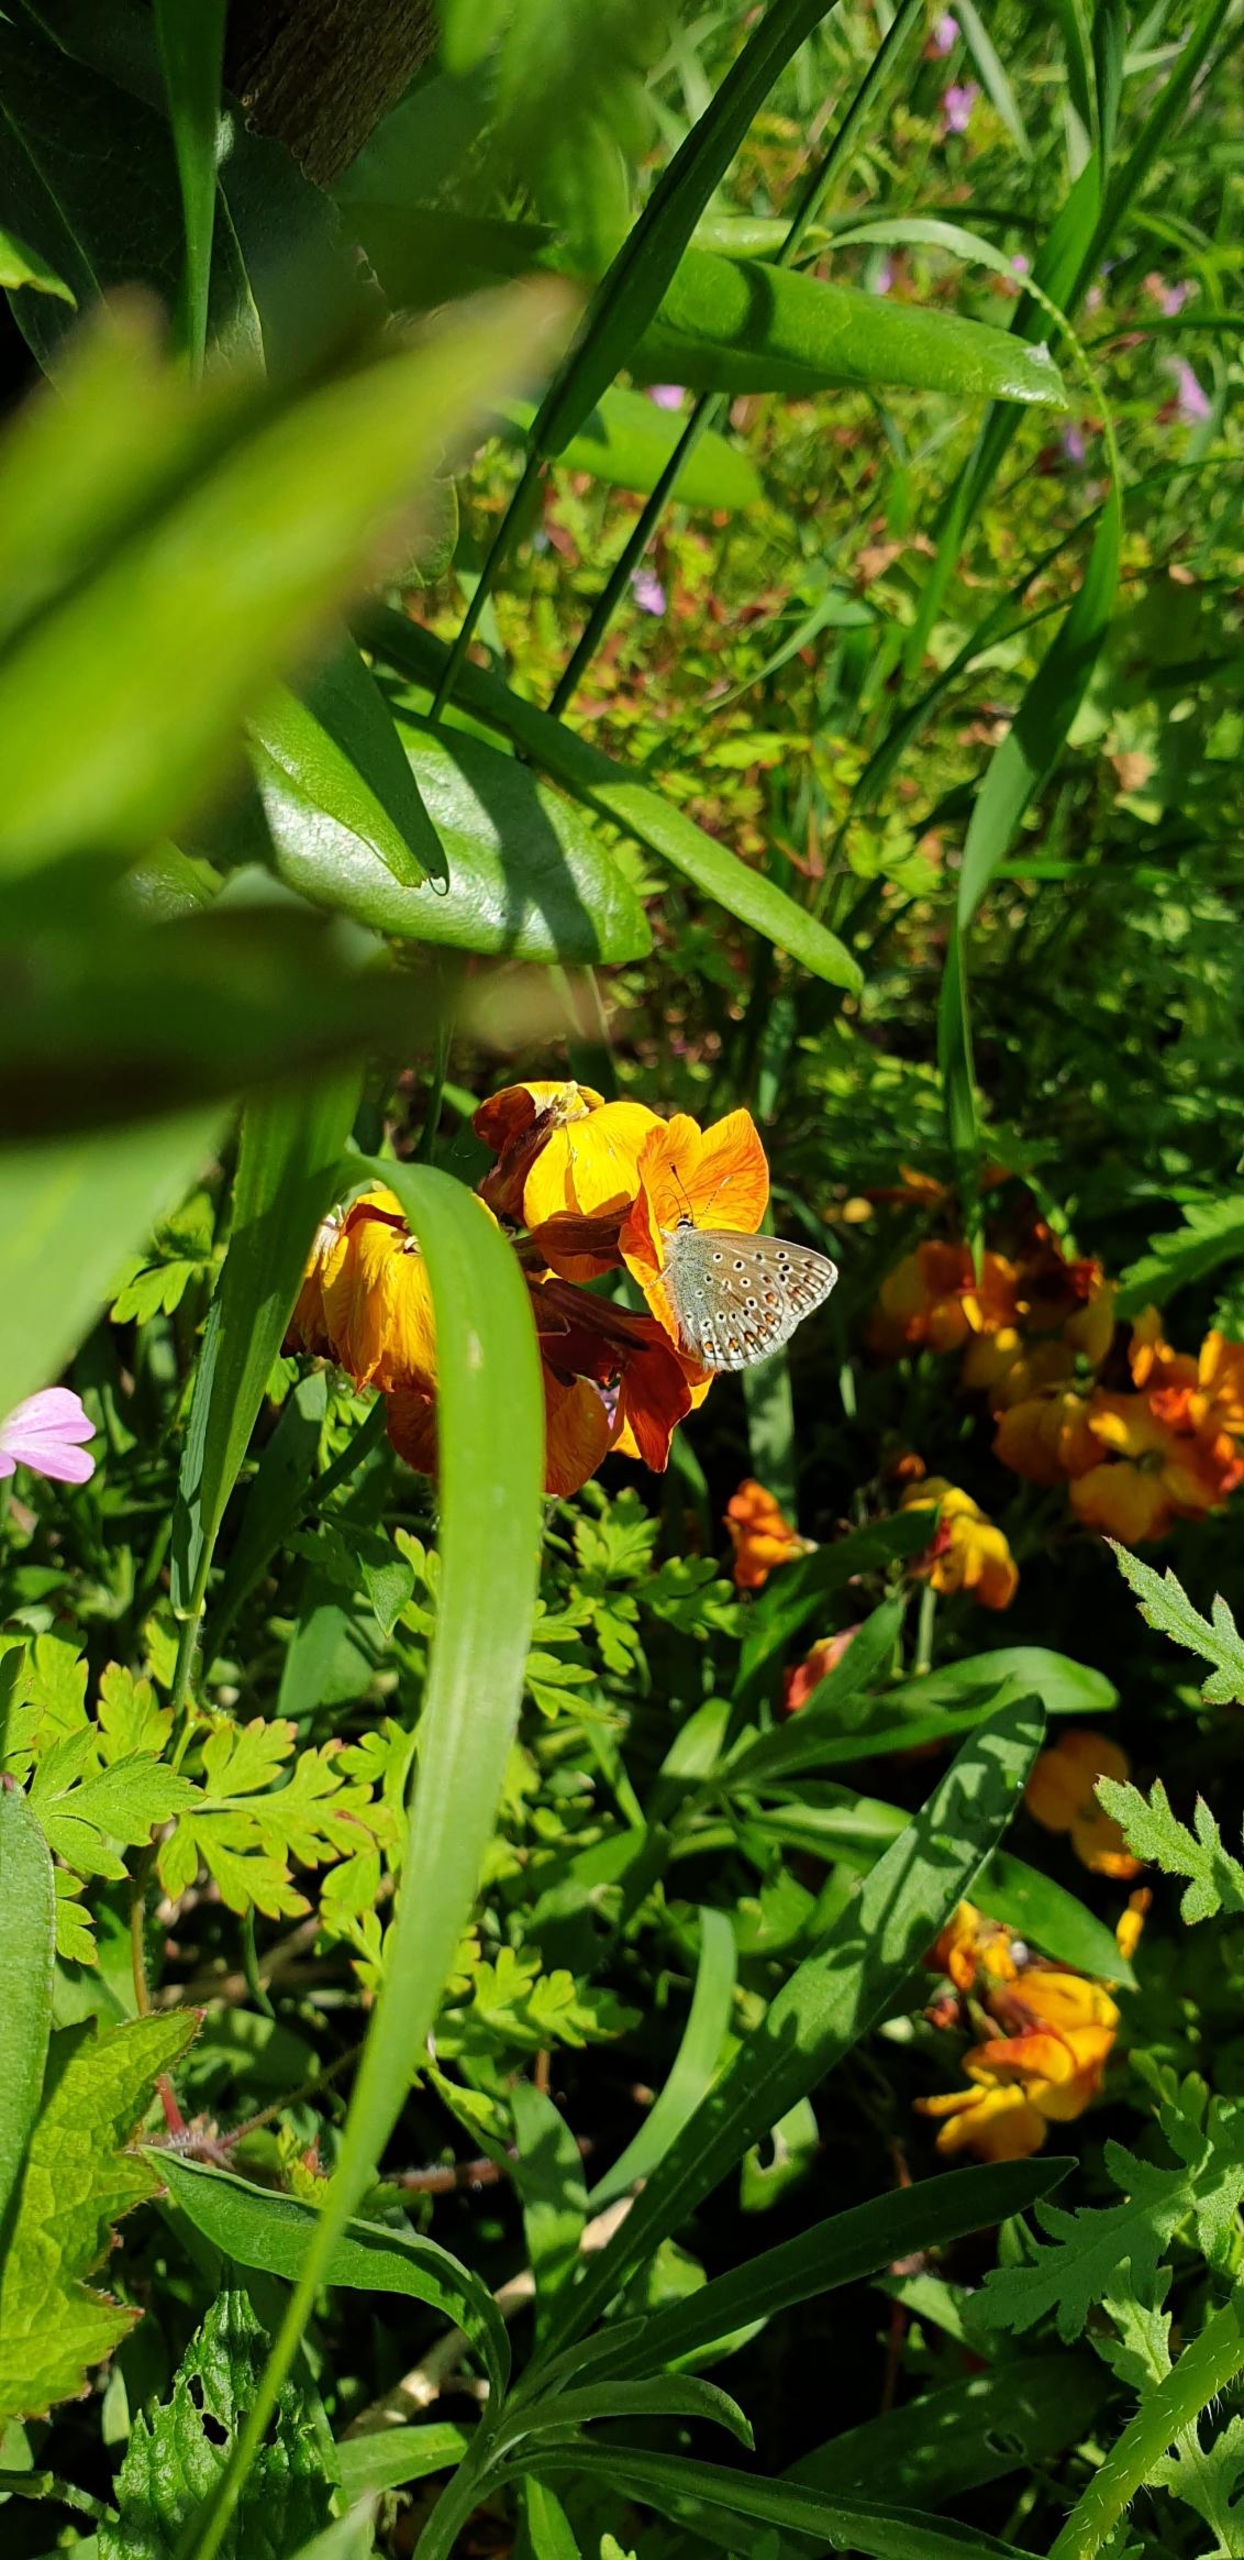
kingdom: Animalia
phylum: Arthropoda
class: Insecta
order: Lepidoptera
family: Lycaenidae
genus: Polyommatus
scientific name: Polyommatus icarus
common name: Almindelig blåfugl
